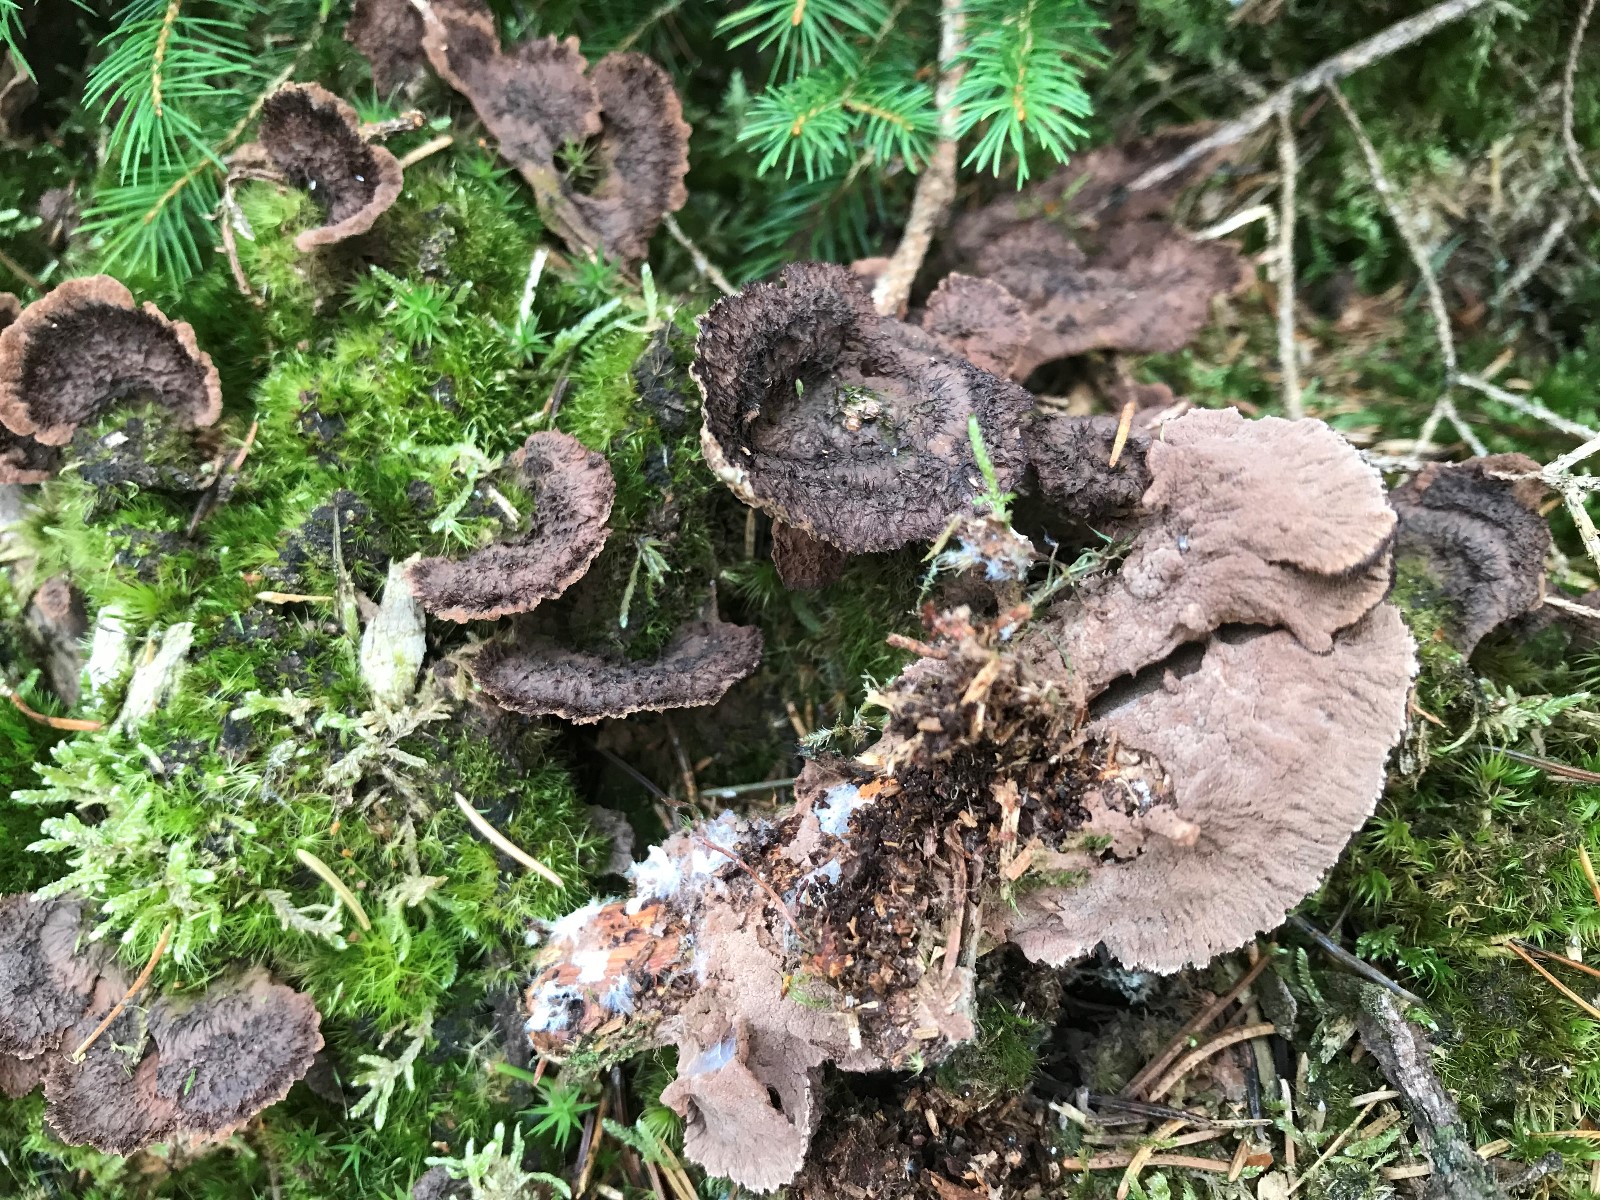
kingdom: Fungi
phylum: Basidiomycota
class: Agaricomycetes
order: Thelephorales
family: Thelephoraceae
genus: Thelephora
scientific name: Thelephora terrestris
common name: fliget frynsesvamp
